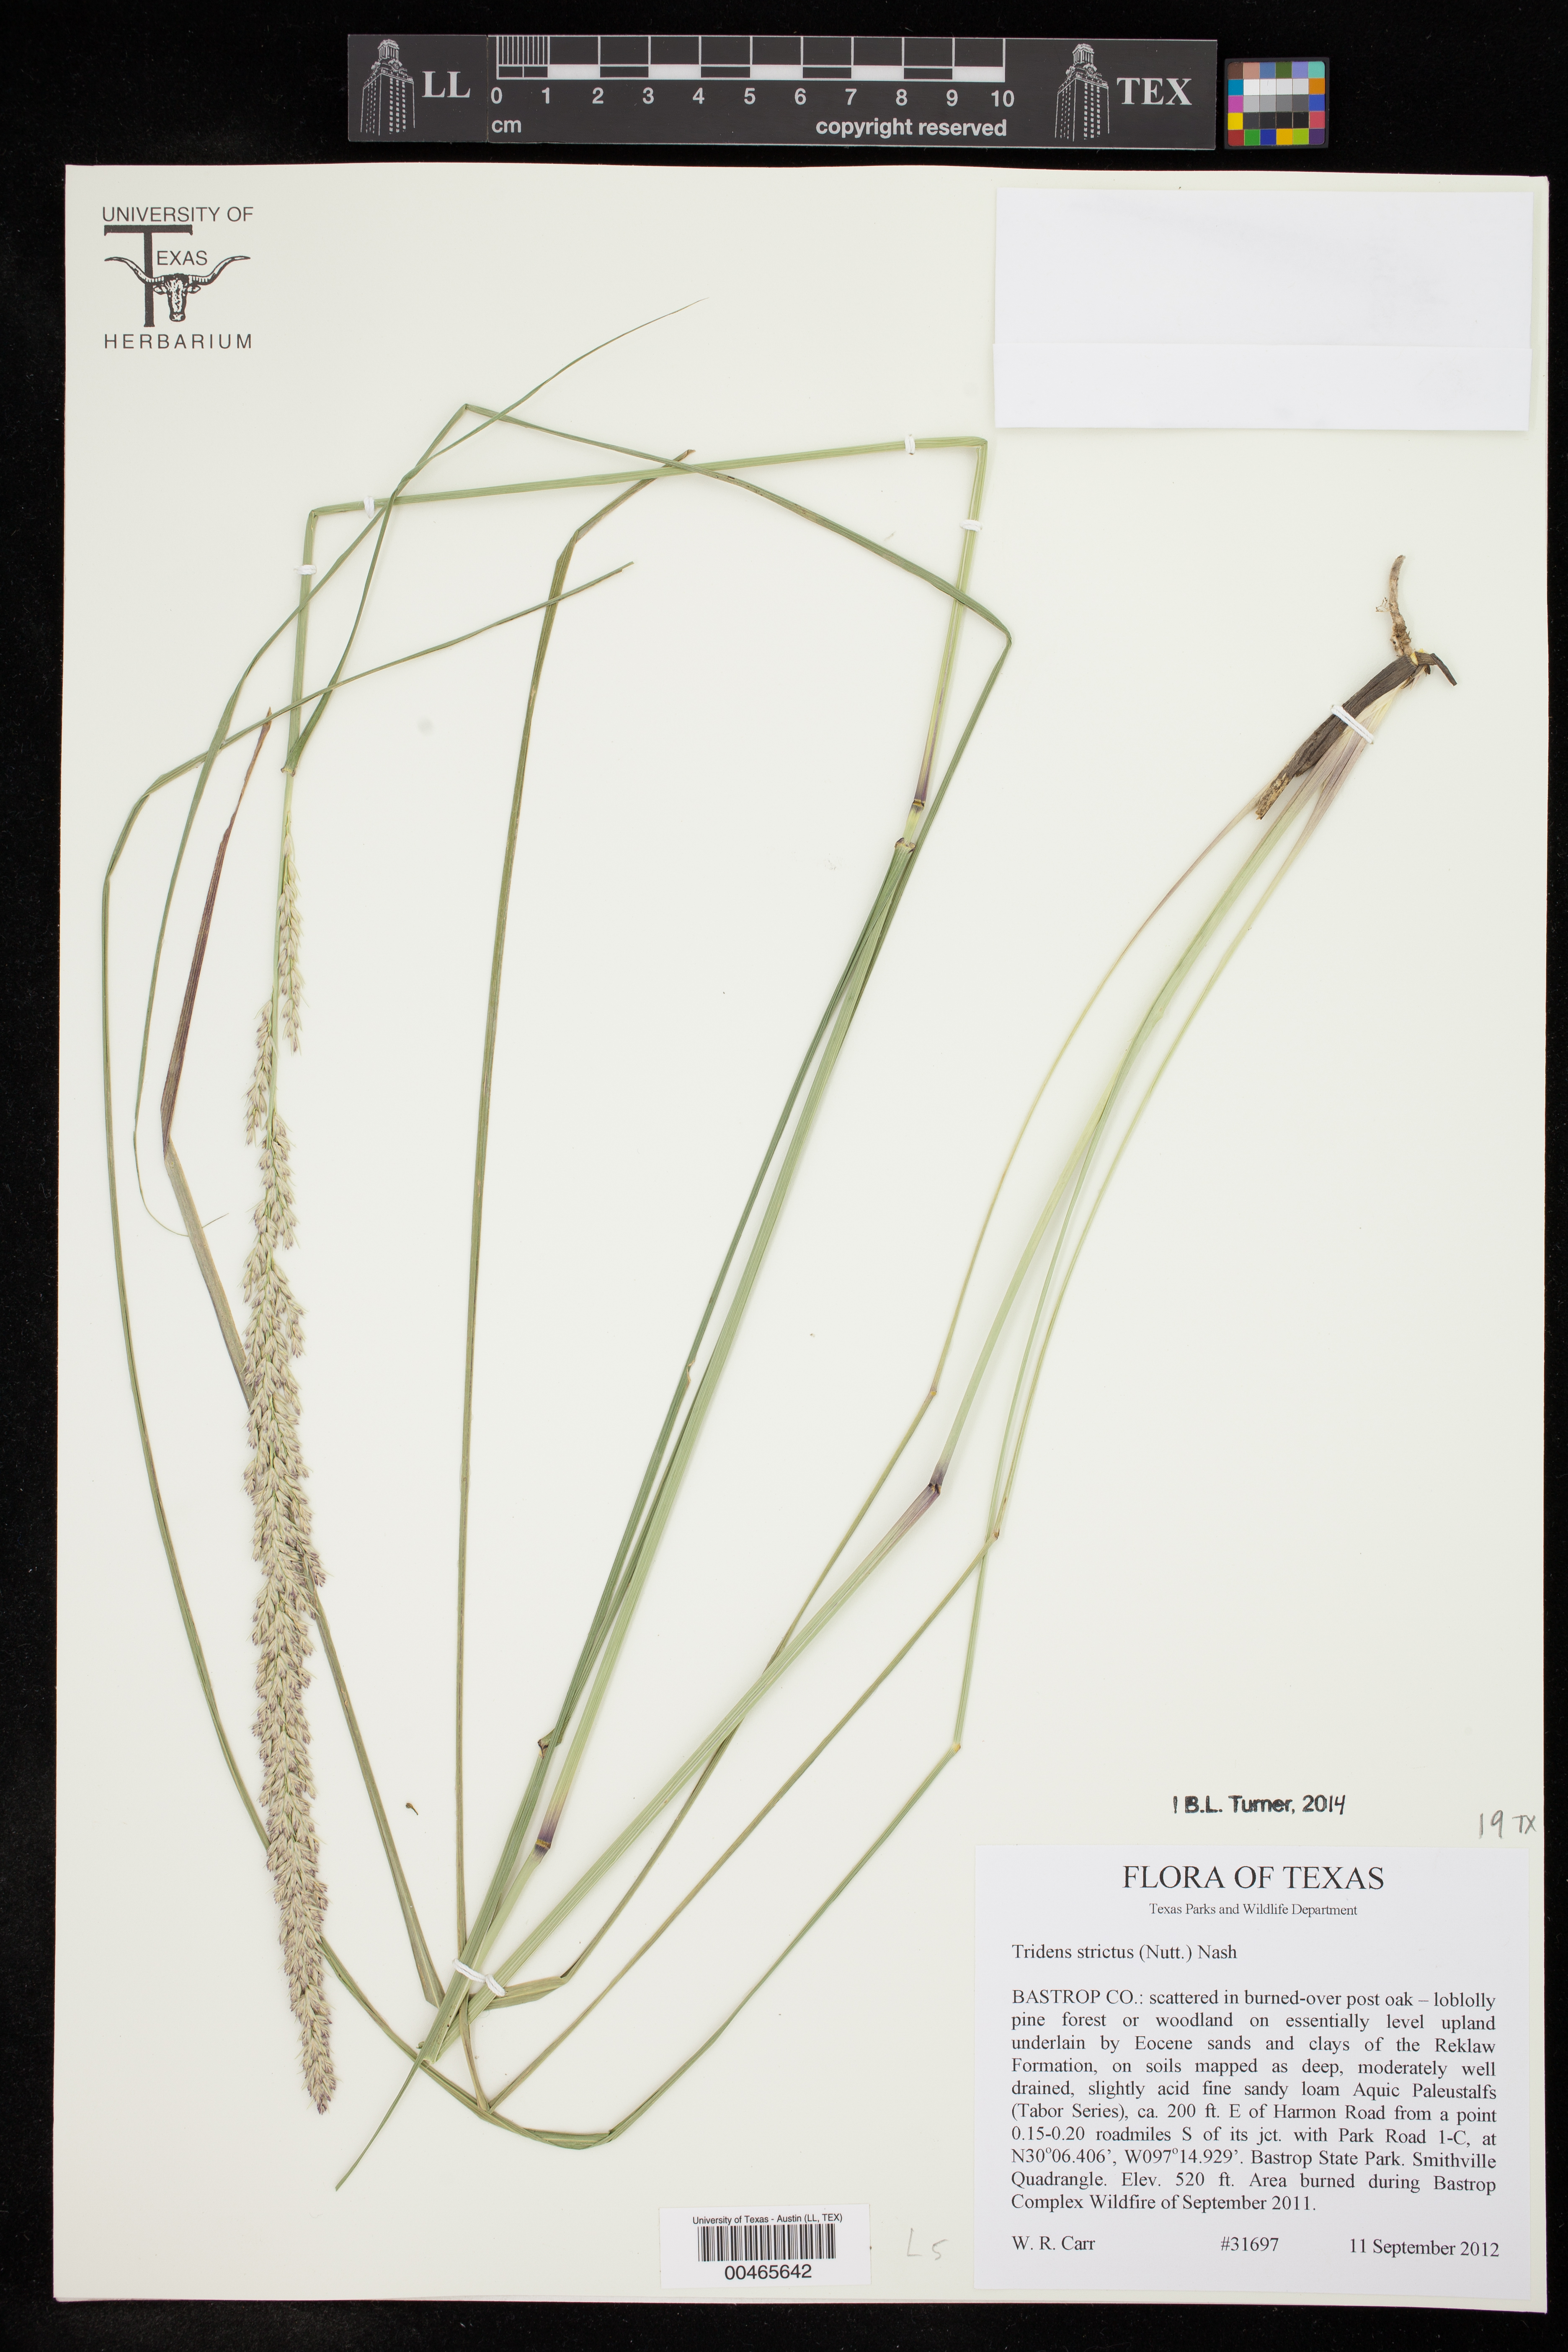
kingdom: Plantae
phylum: Tracheophyta
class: Liliopsida
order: Poales
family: Poaceae
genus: Tridens
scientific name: Tridens strictus
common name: Long-spike tridens
